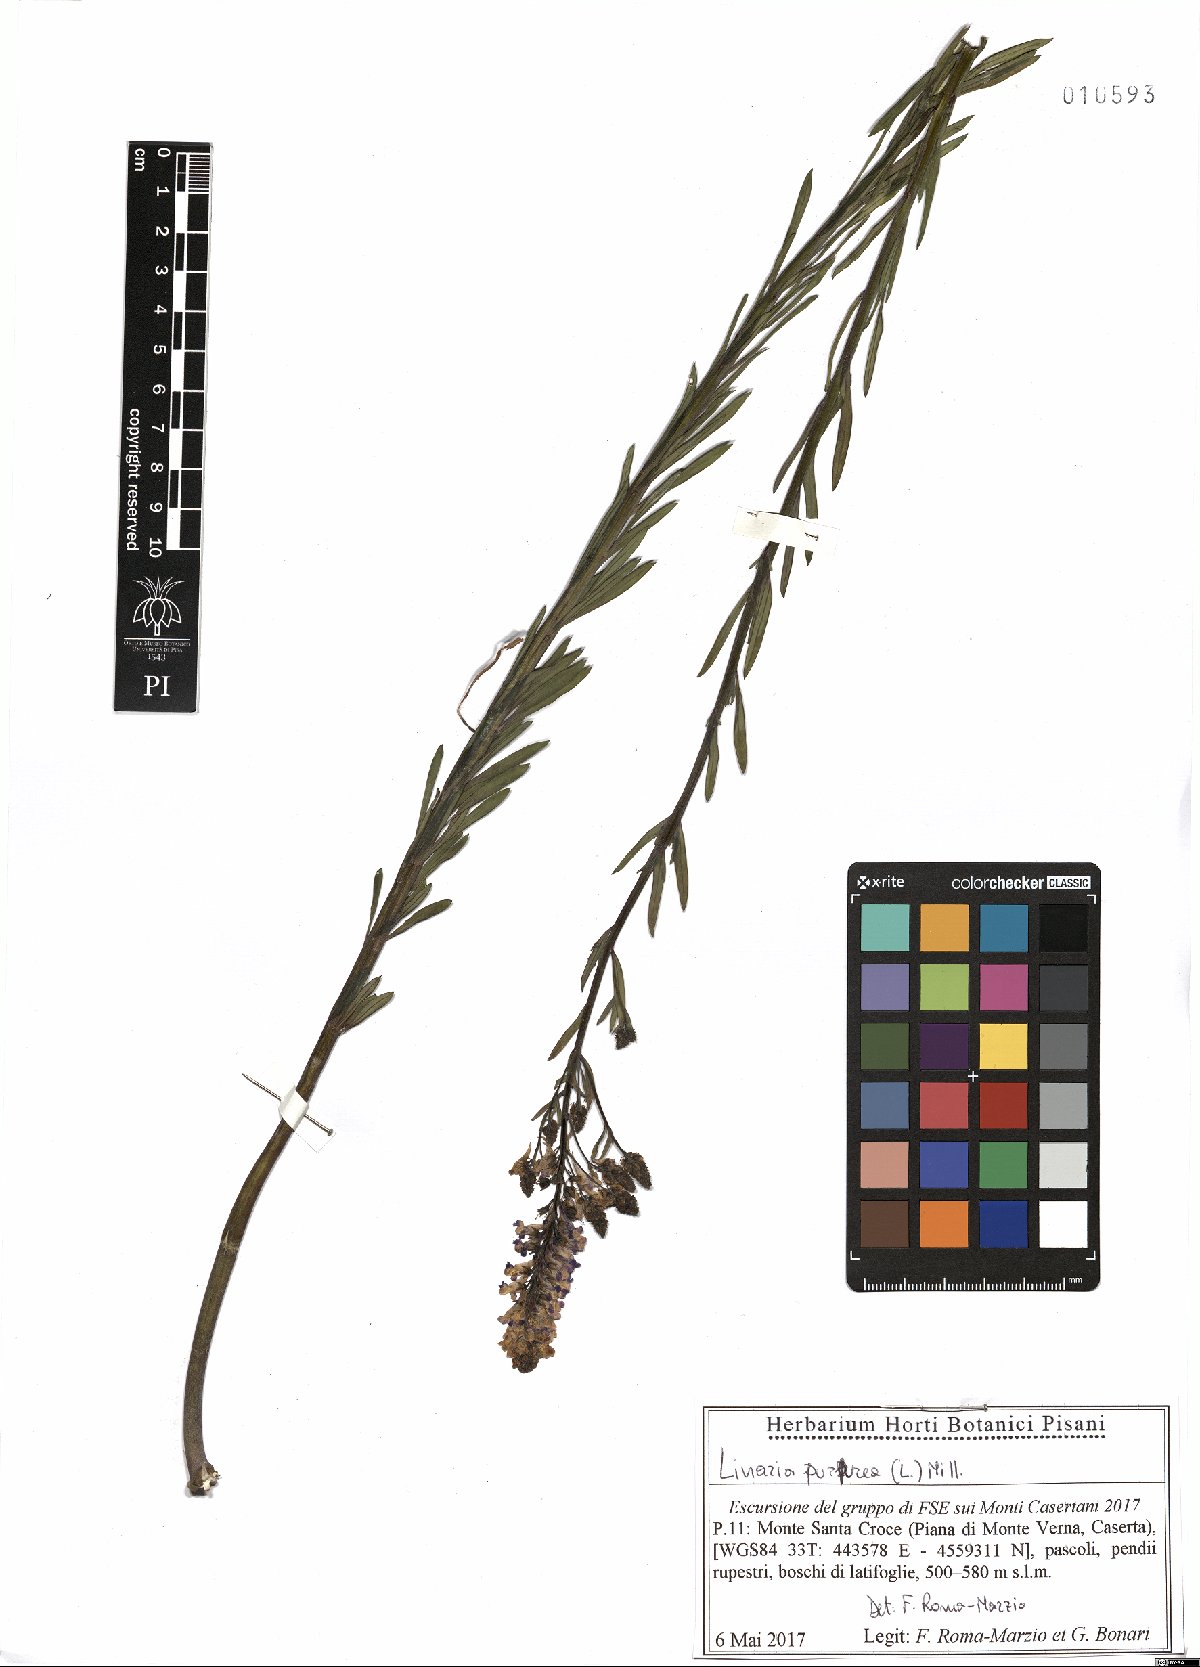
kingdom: Plantae
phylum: Tracheophyta
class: Magnoliopsida
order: Lamiales
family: Plantaginaceae
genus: Linaria
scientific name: Linaria purpurea
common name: Purple toadflax
